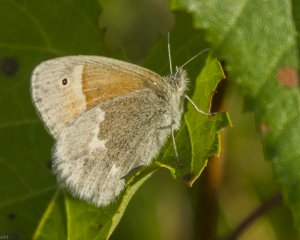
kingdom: Animalia
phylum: Arthropoda
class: Insecta
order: Lepidoptera
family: Nymphalidae
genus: Coenonympha
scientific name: Coenonympha tullia
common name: Large Heath
